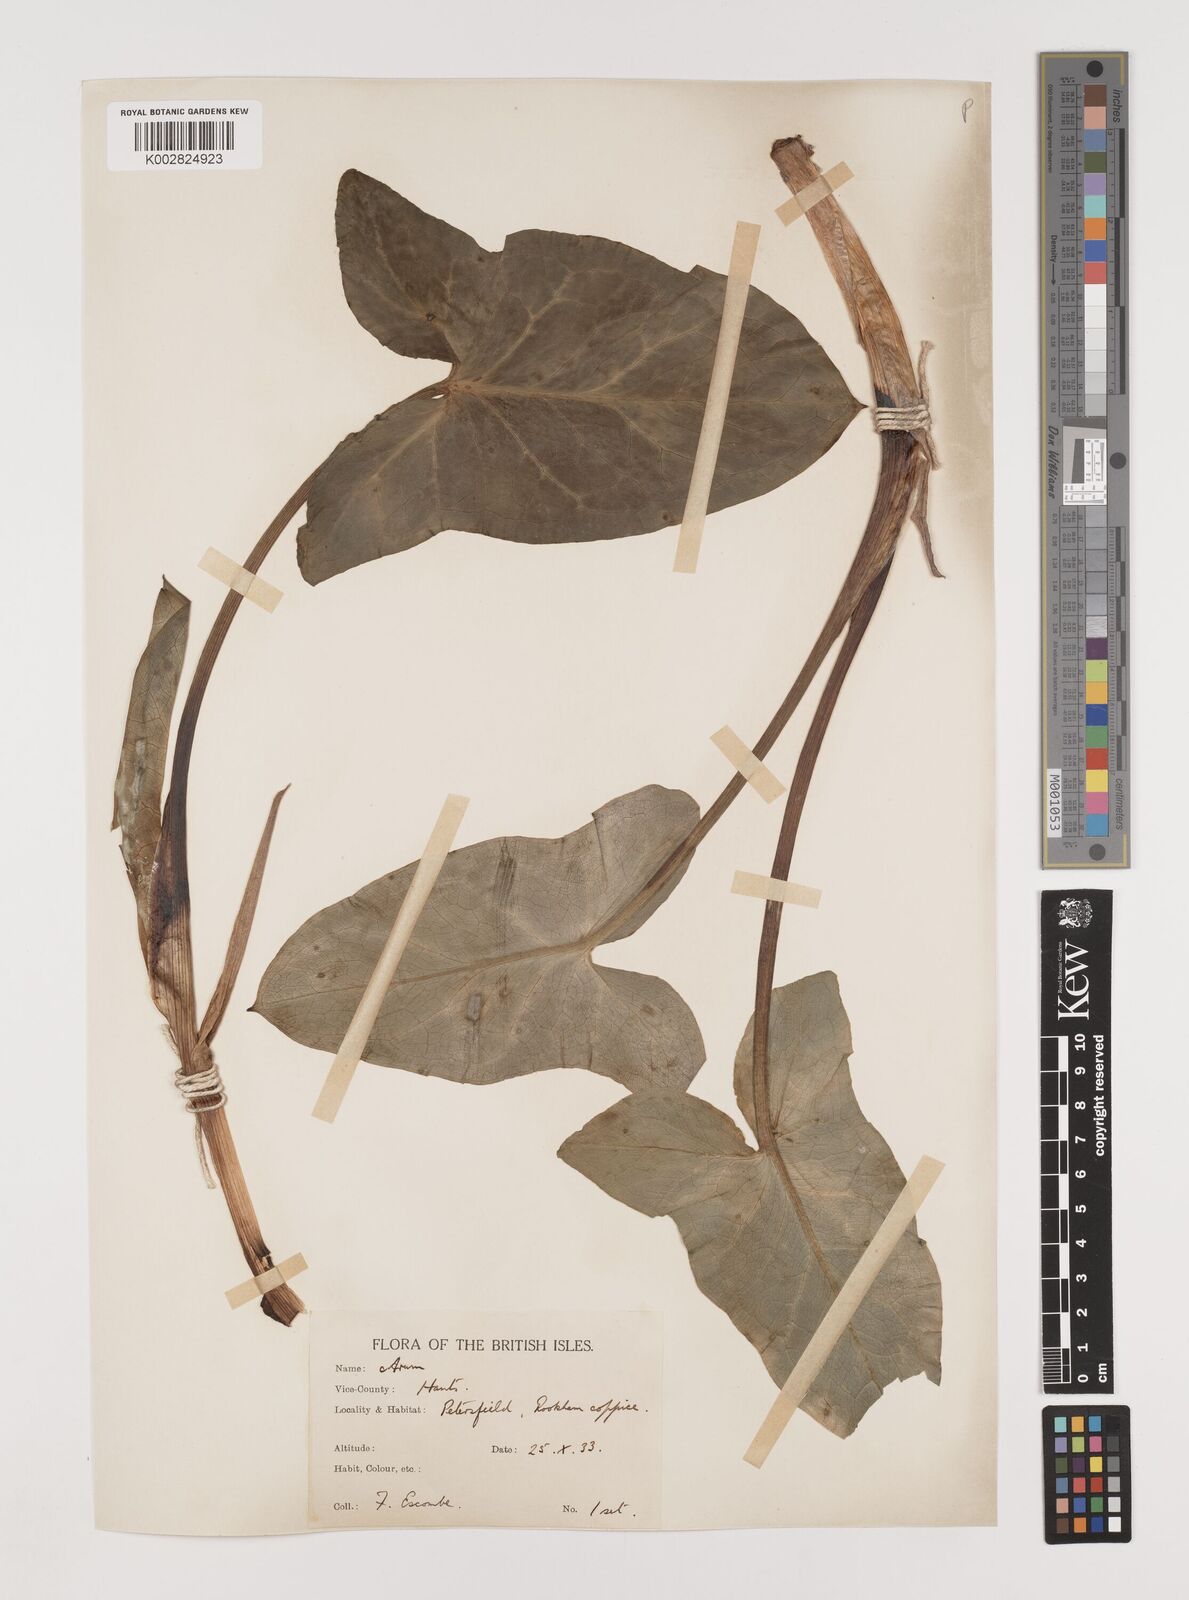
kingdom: Plantae
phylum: Tracheophyta
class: Liliopsida
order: Alismatales
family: Araceae
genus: Arum
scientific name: Arum italicum
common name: Italian lords-and-ladies
